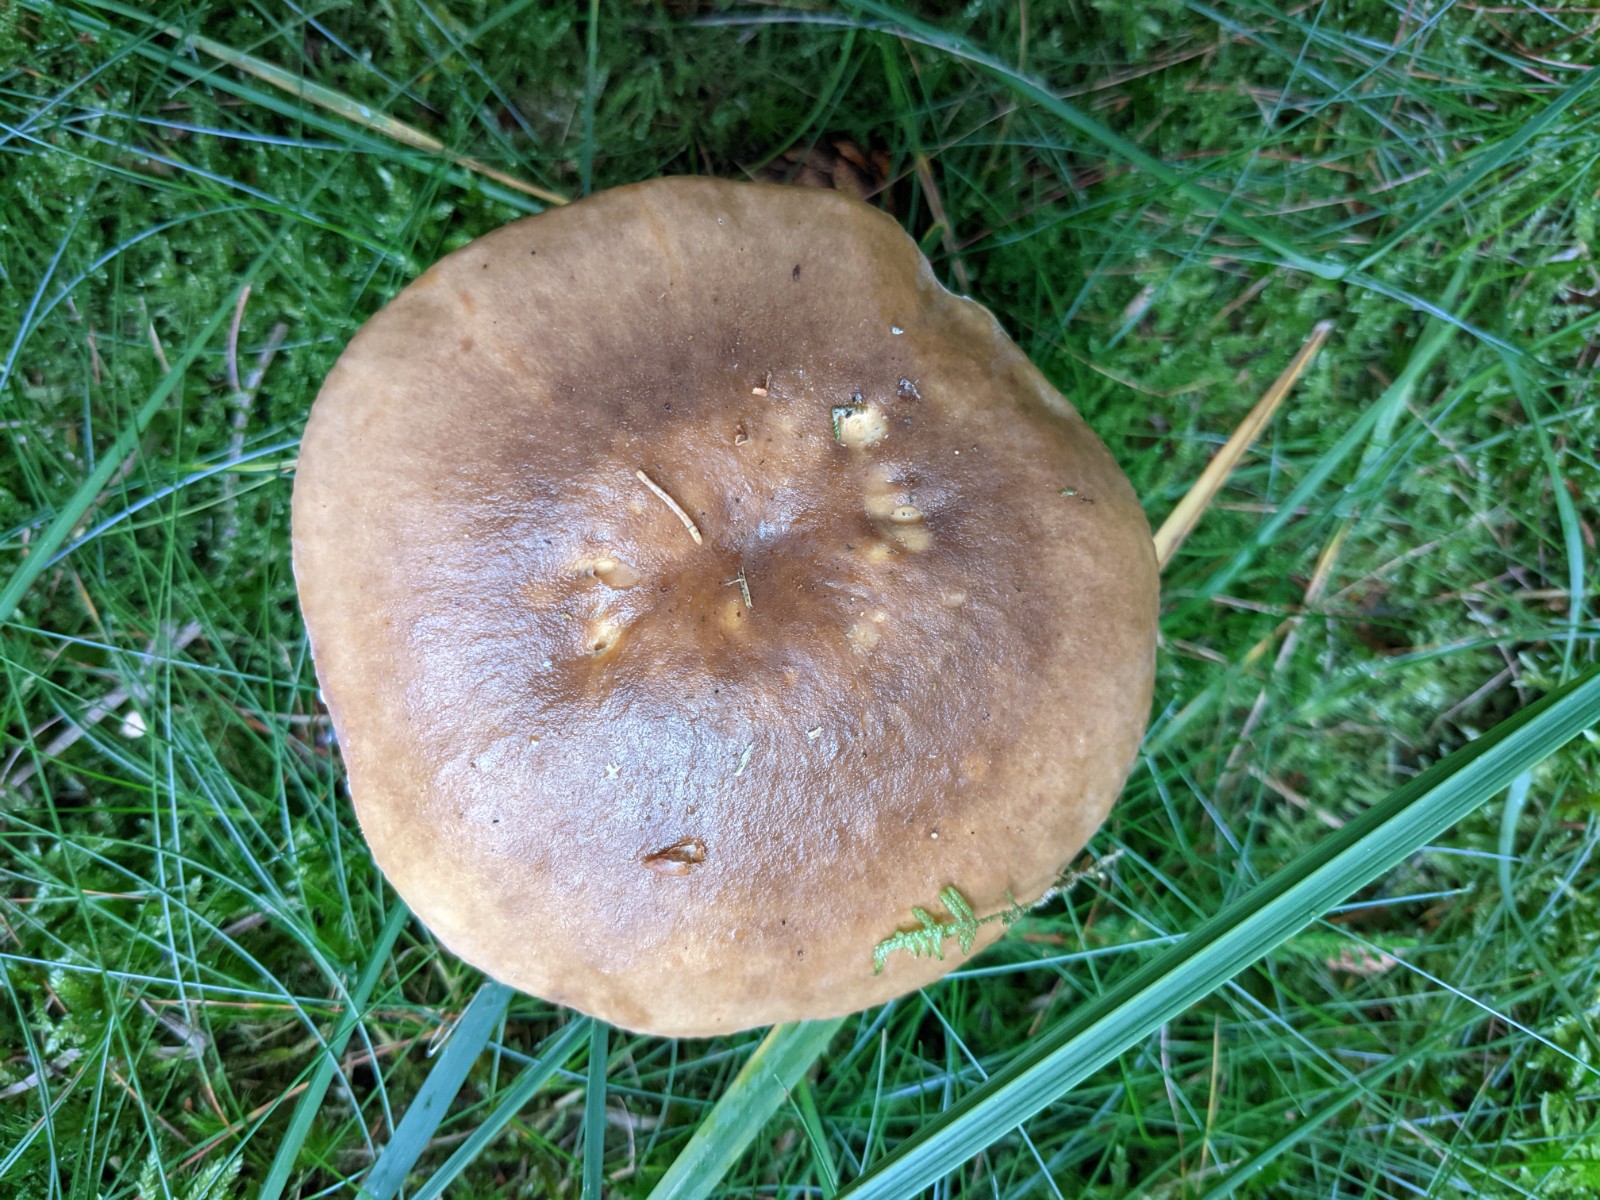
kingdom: Fungi
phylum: Basidiomycota
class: Agaricomycetes
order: Russulales
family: Russulaceae
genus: Russula
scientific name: Russula mustelina
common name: brun skørhat
